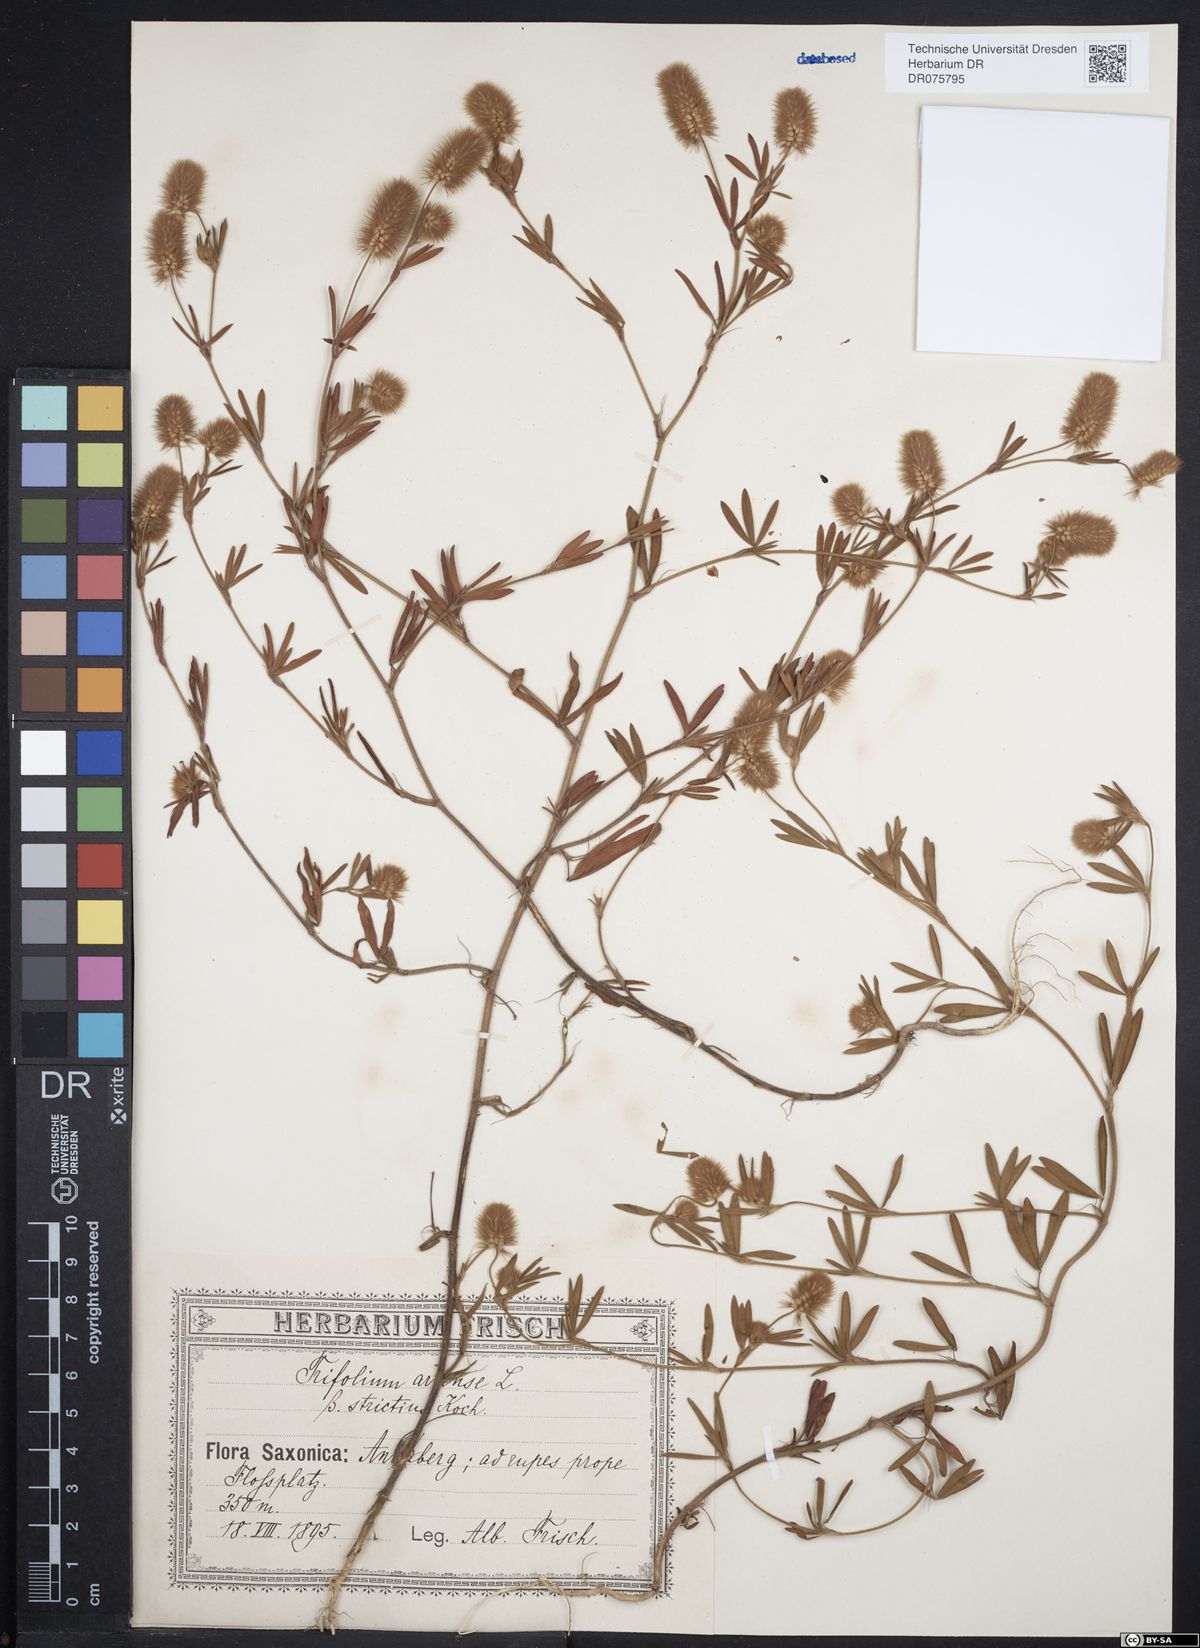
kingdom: Plantae
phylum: Tracheophyta
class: Magnoliopsida
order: Fabales
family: Fabaceae
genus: Trifolium
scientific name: Trifolium arvense
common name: Hare's-foot clover
